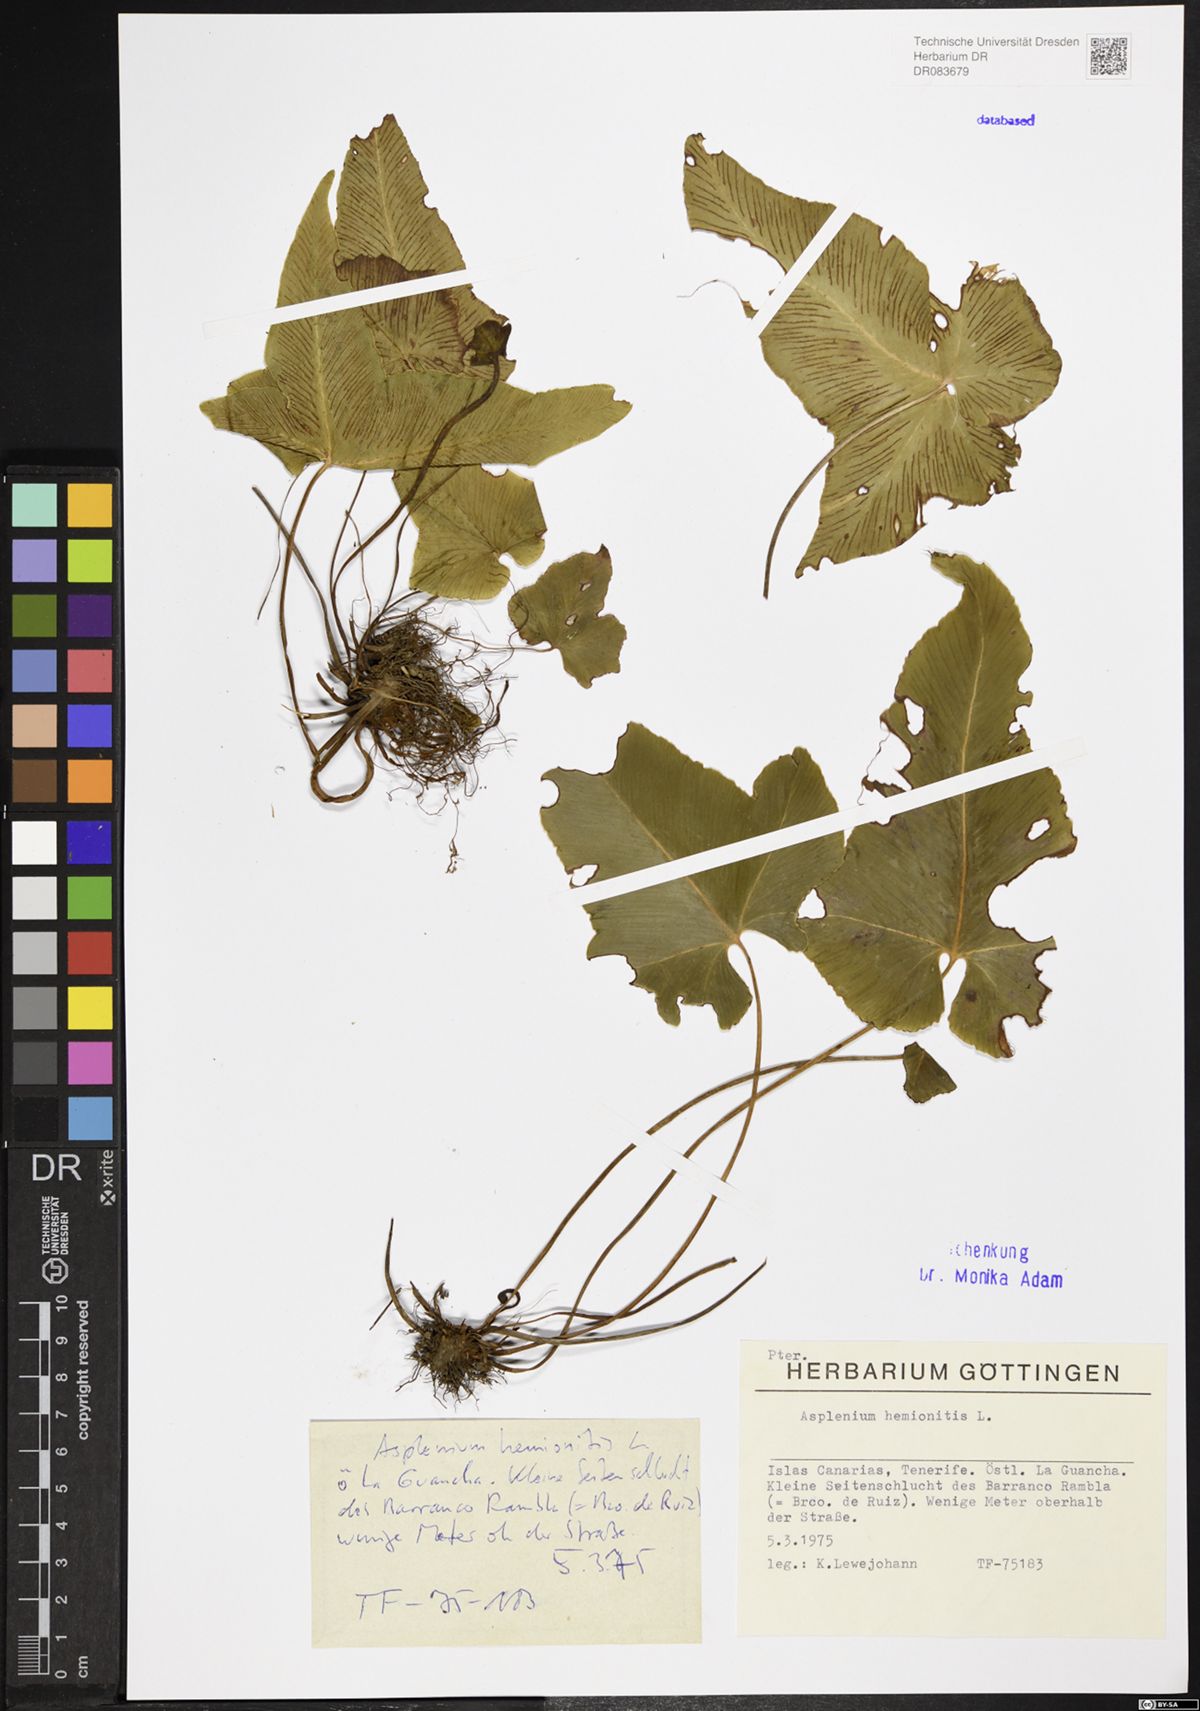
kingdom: Plantae
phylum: Tracheophyta
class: Polypodiopsida
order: Polypodiales
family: Aspleniaceae
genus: Asplenium
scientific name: Asplenium hemionitis
